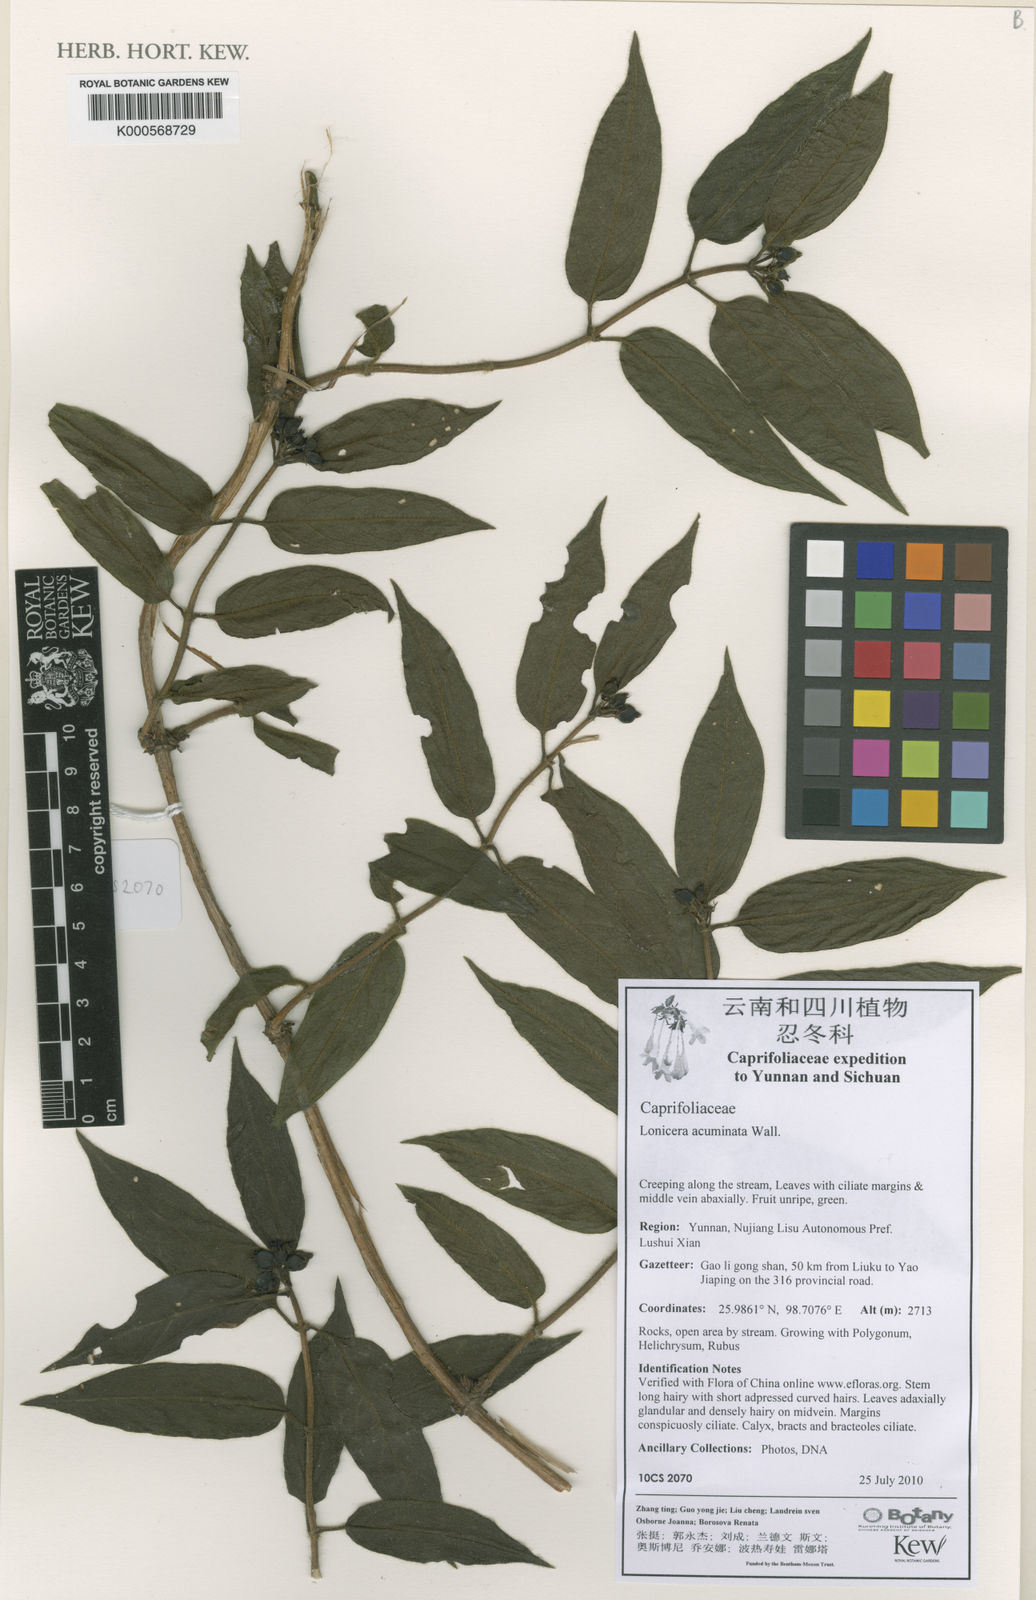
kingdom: Plantae
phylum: Tracheophyta
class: Magnoliopsida
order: Dipsacales
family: Caprifoliaceae
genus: Lonicera
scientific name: Lonicera acuminata
